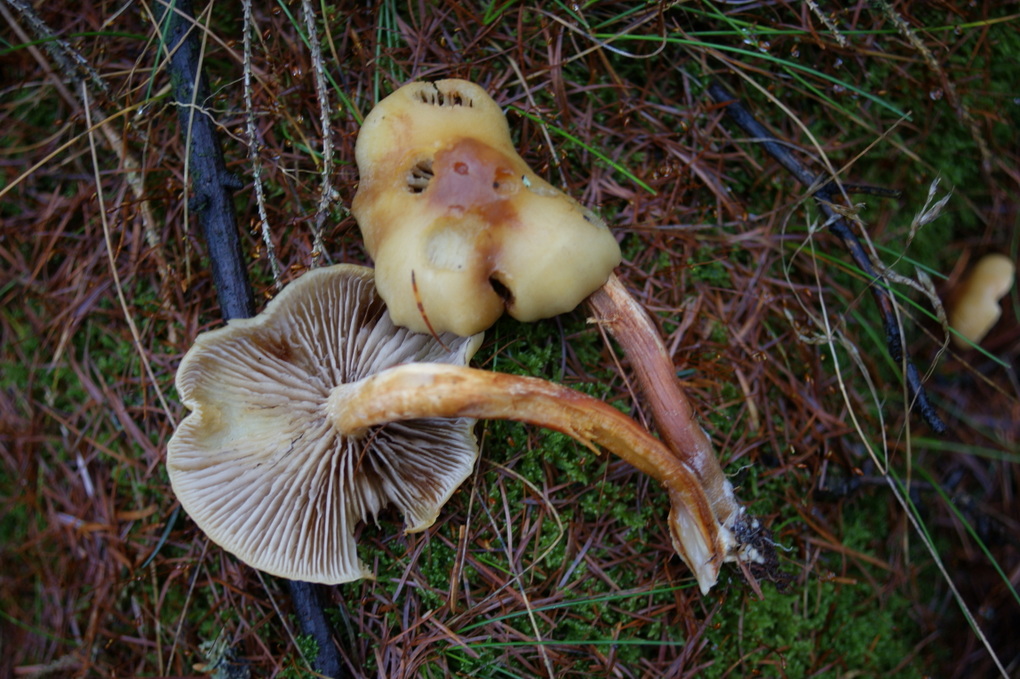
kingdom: Fungi
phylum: Basidiomycota
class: Agaricomycetes
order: Agaricales
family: Strophariaceae
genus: Hypholoma
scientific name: Hypholoma capnoides
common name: gran-svovlhat
